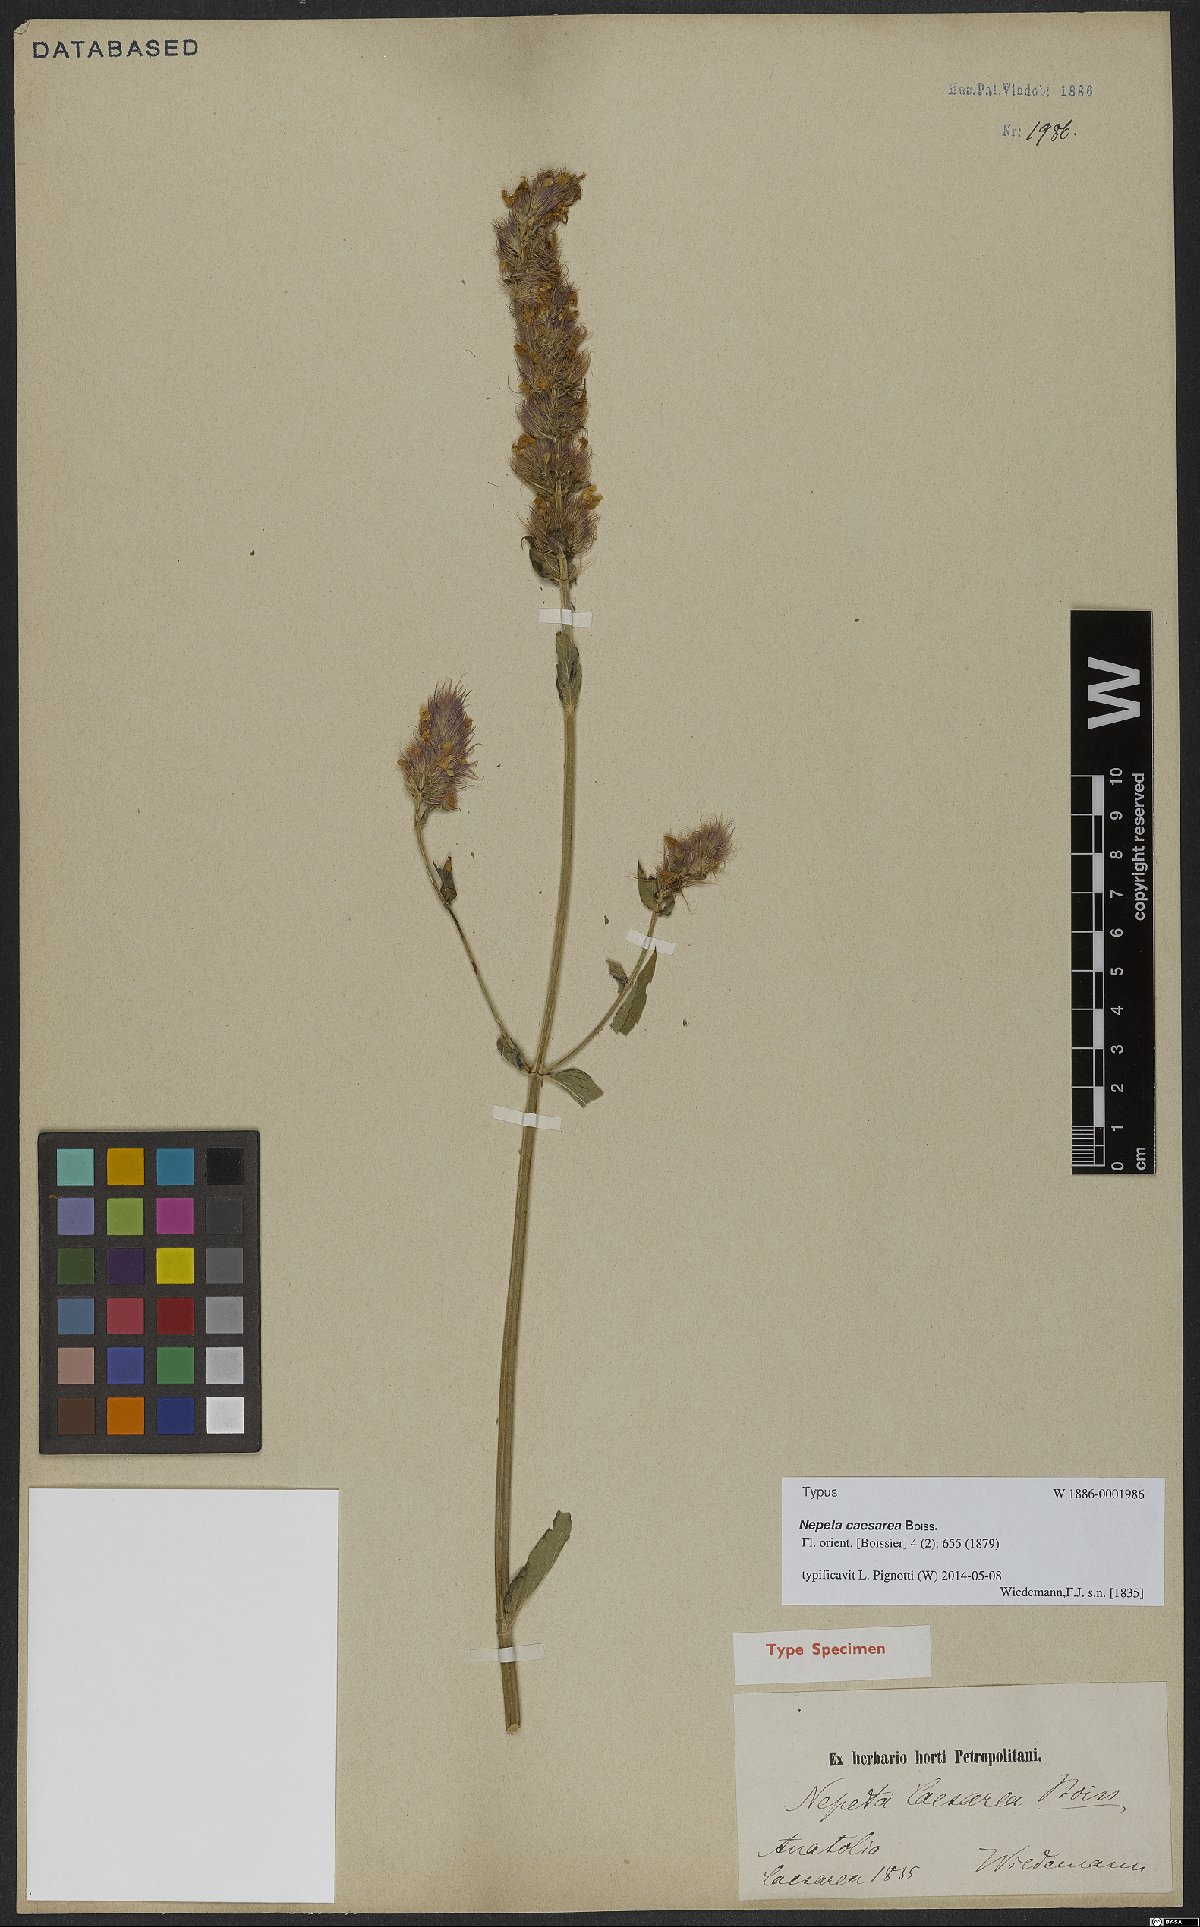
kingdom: Plantae
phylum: Tracheophyta
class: Magnoliopsida
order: Lamiales
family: Lamiaceae
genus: Nepeta
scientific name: Nepeta caesarea
